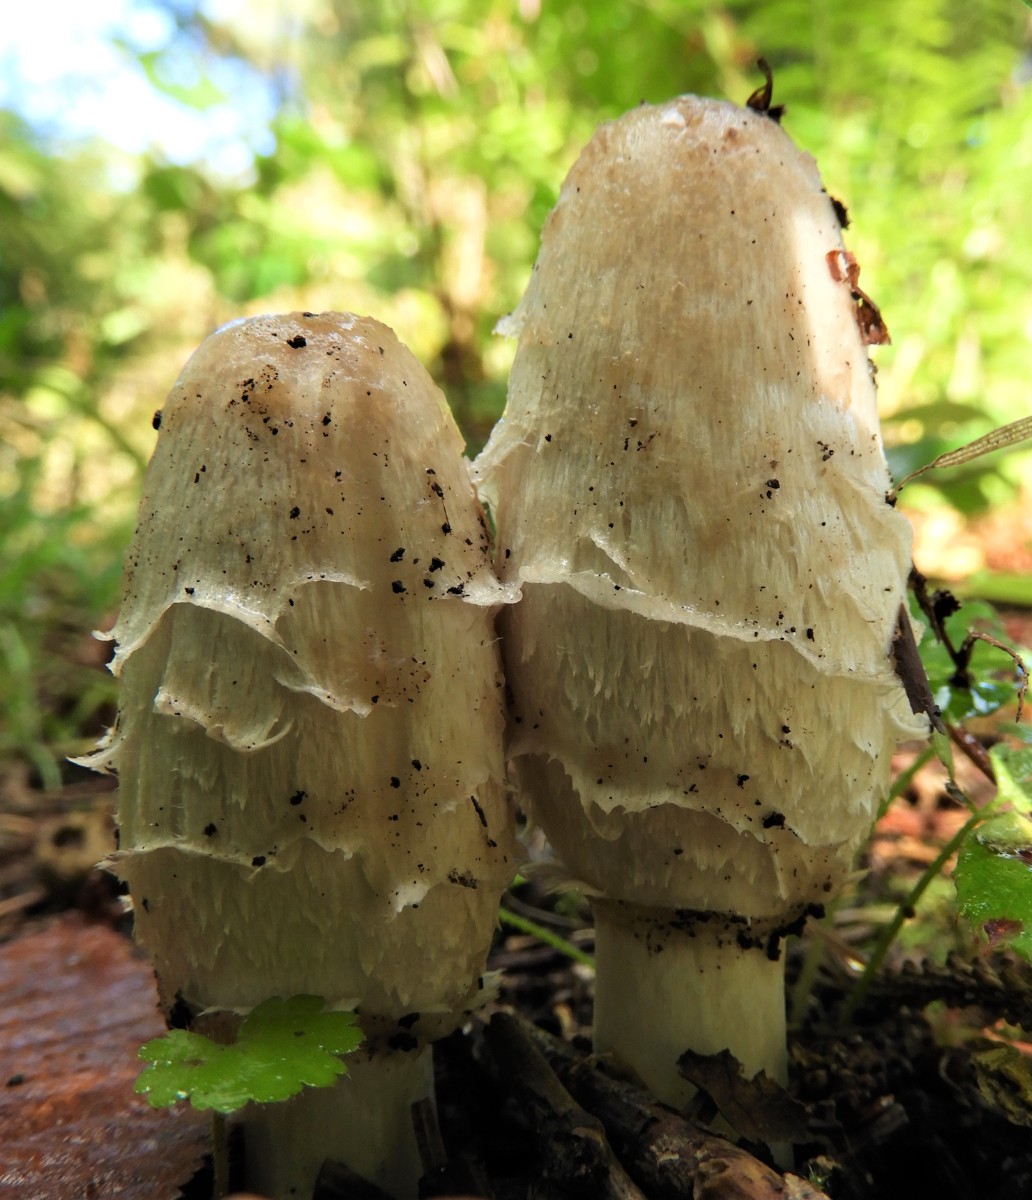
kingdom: Fungi
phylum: Basidiomycota
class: Agaricomycetes
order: Agaricales
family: Agaricaceae
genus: Coprinus
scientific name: Coprinus comatus
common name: stor parykhat
